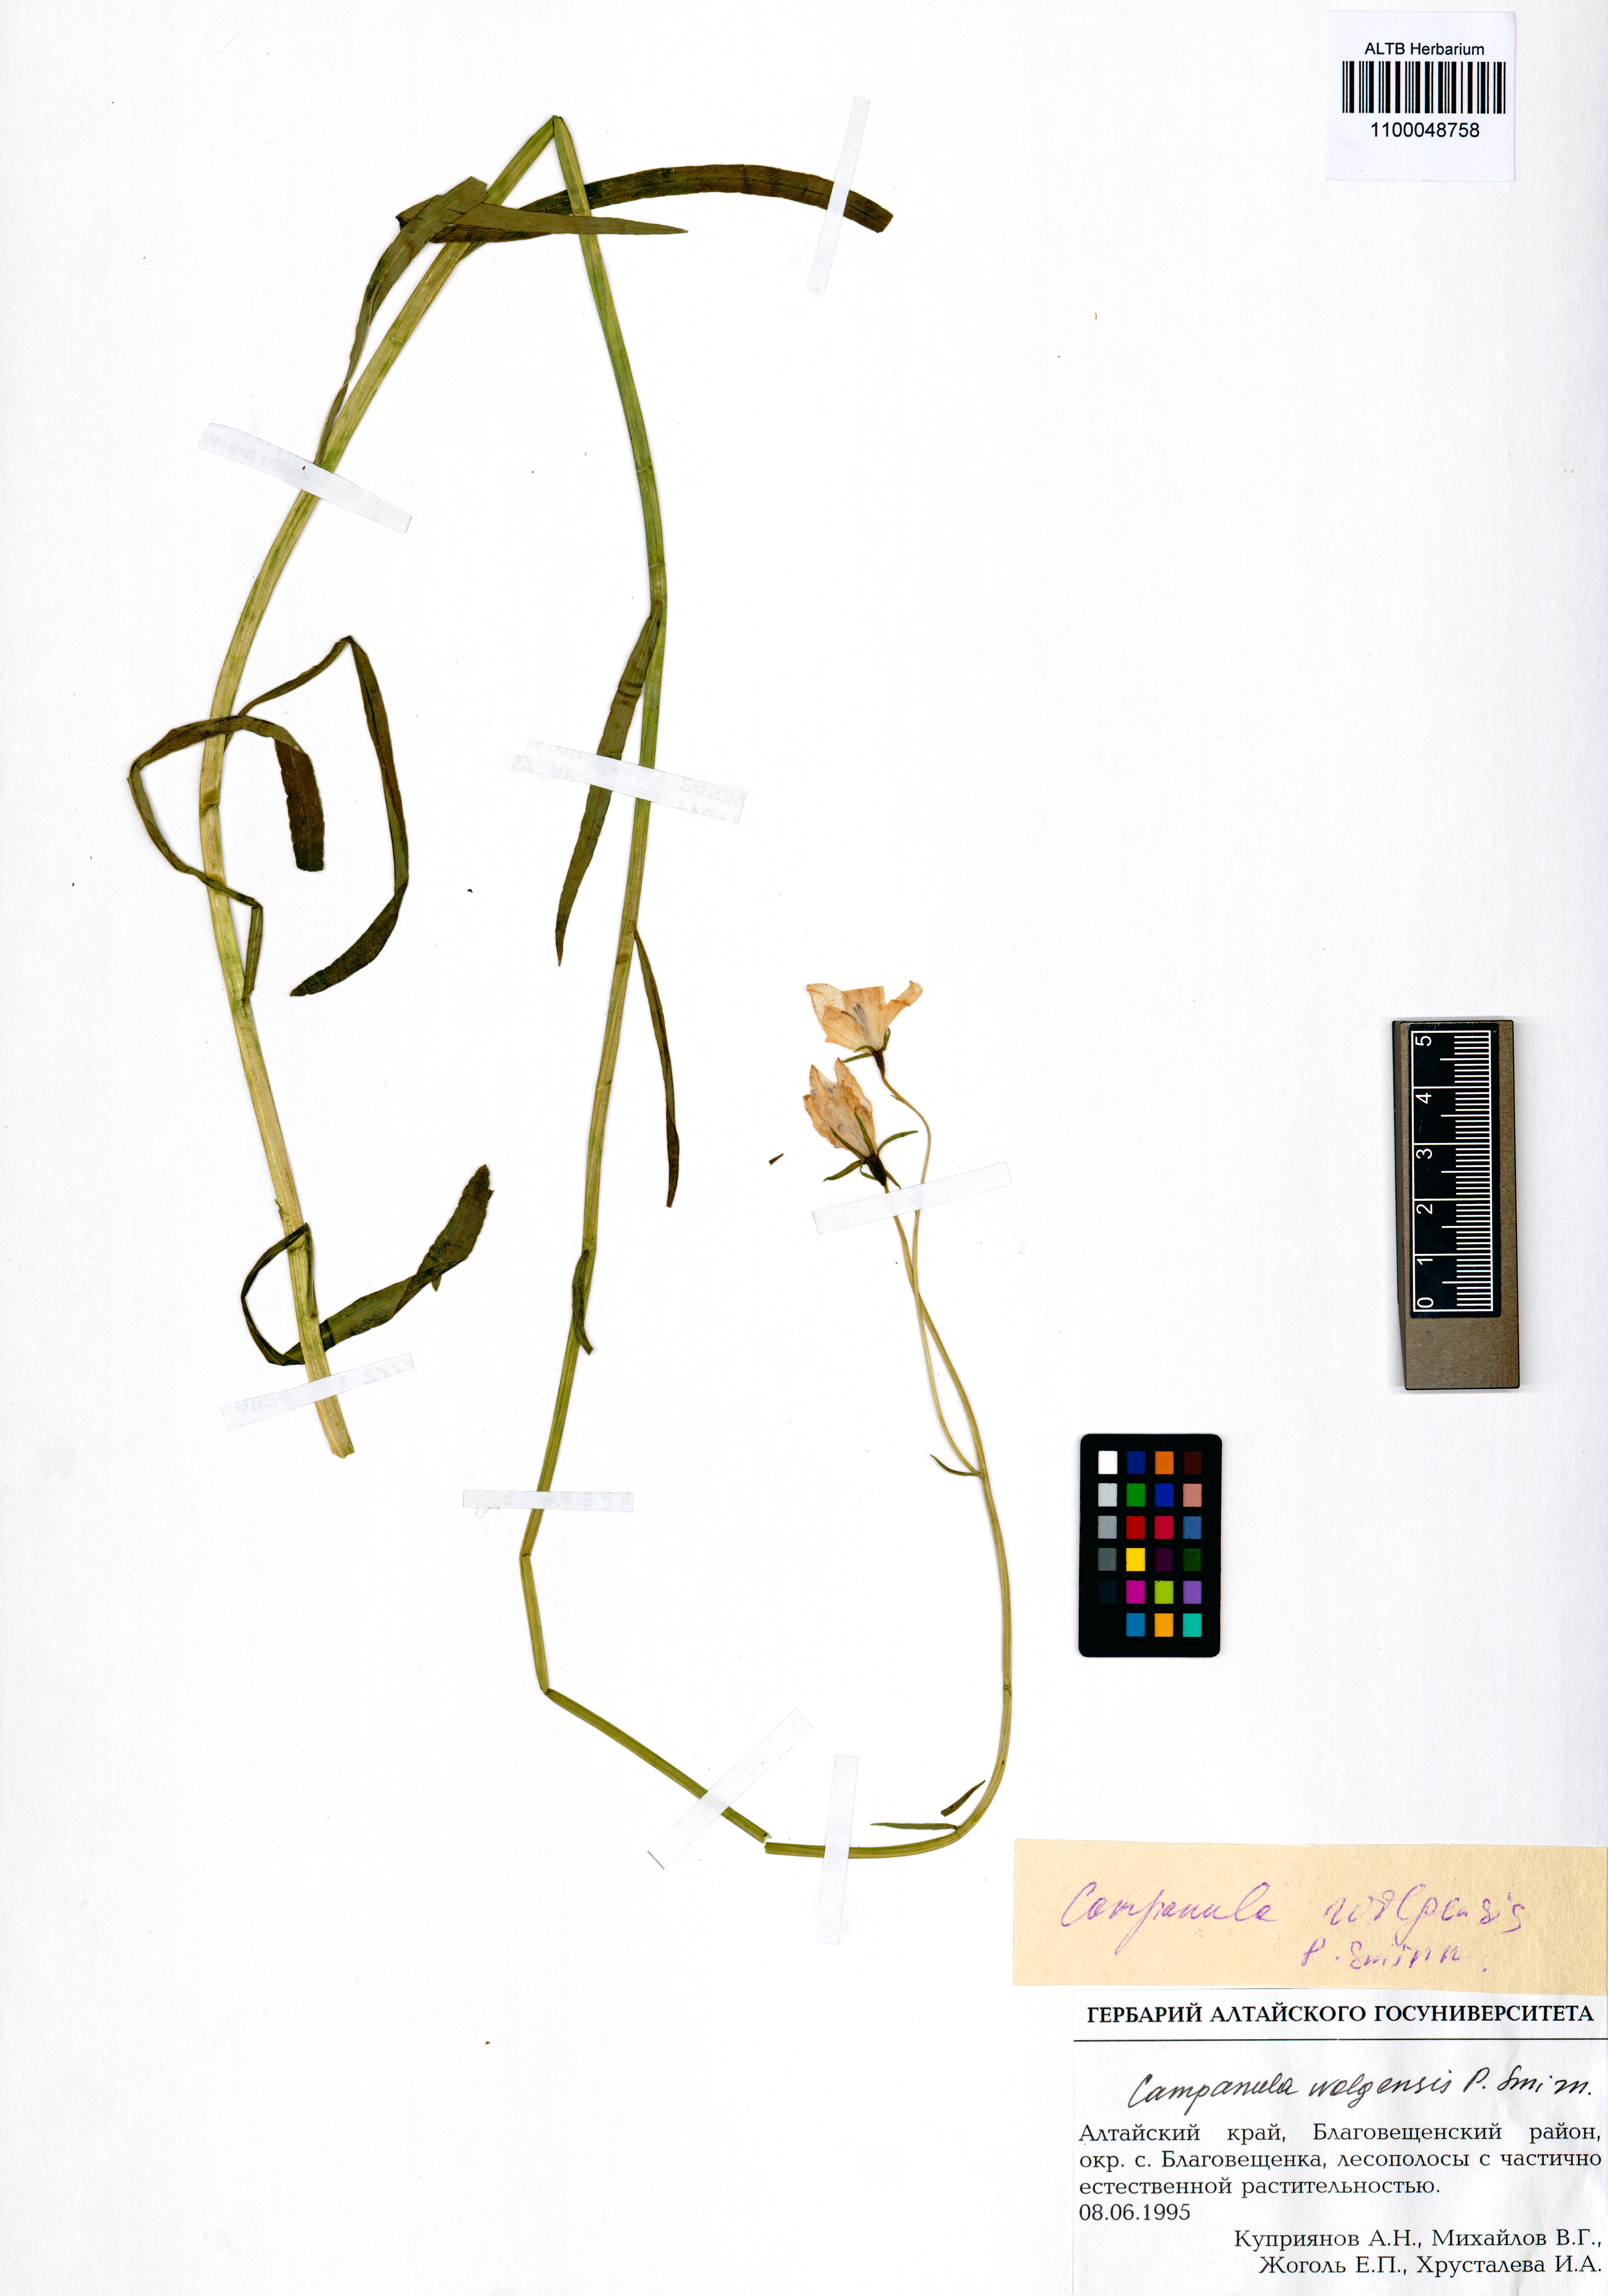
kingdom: Plantae
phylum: Tracheophyta
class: Magnoliopsida
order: Asterales
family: Campanulaceae
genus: Campanula
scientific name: Campanula stevenii
